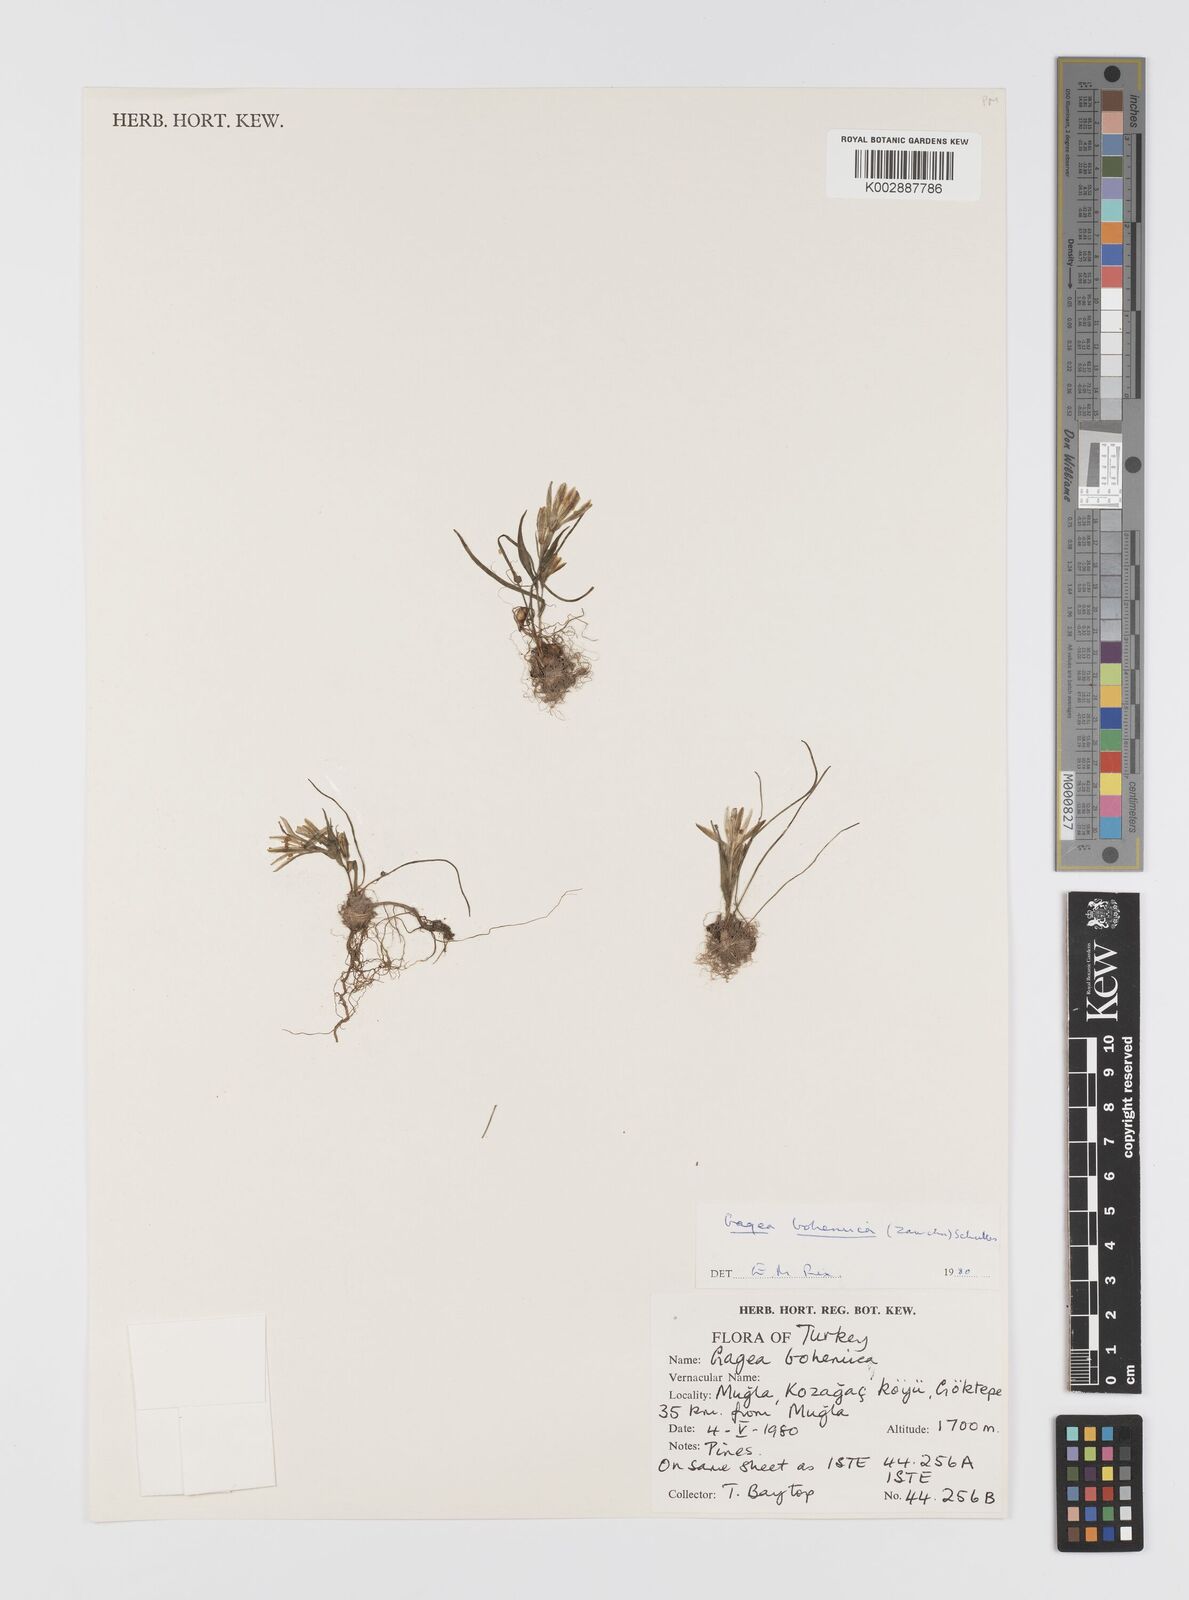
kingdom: Plantae
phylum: Tracheophyta
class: Liliopsida
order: Liliales
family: Liliaceae
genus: Gagea
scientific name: Gagea bohemica
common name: Early star-of-bethlehem
